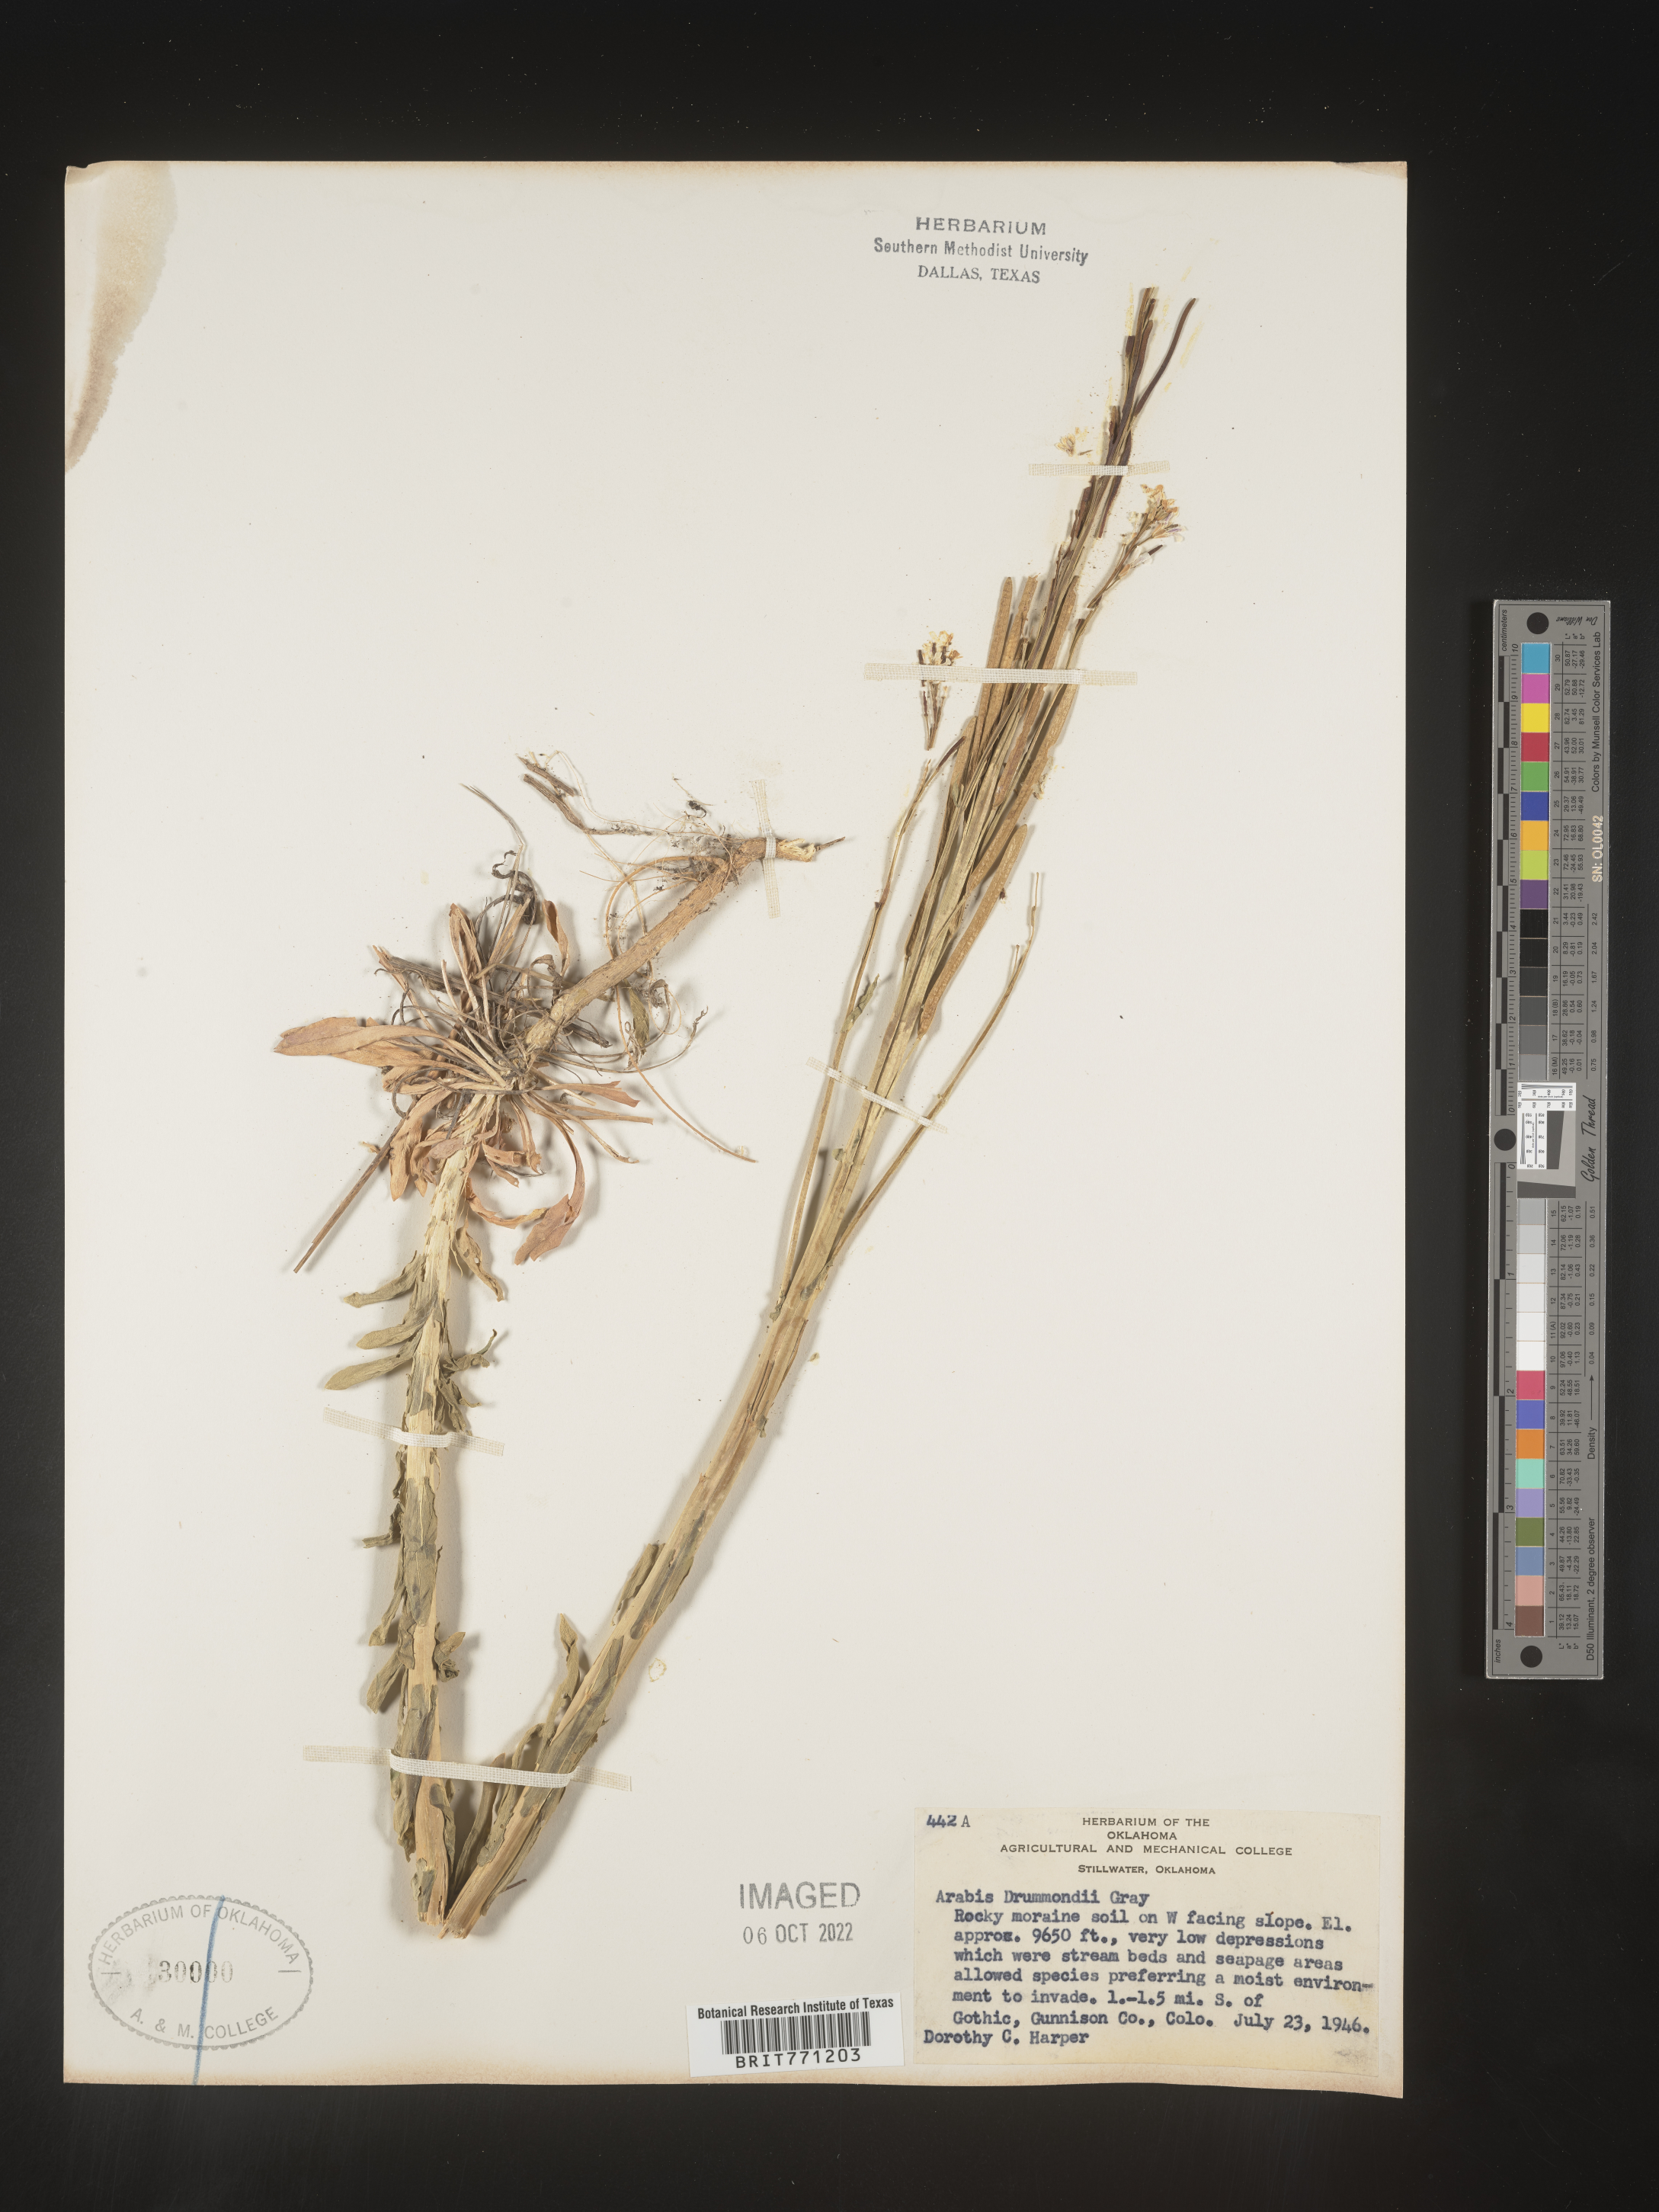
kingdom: Plantae
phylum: Tracheophyta
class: Magnoliopsida
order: Brassicales
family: Brassicaceae
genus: Boechera
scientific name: Boechera stricta
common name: Canadian rockcress
